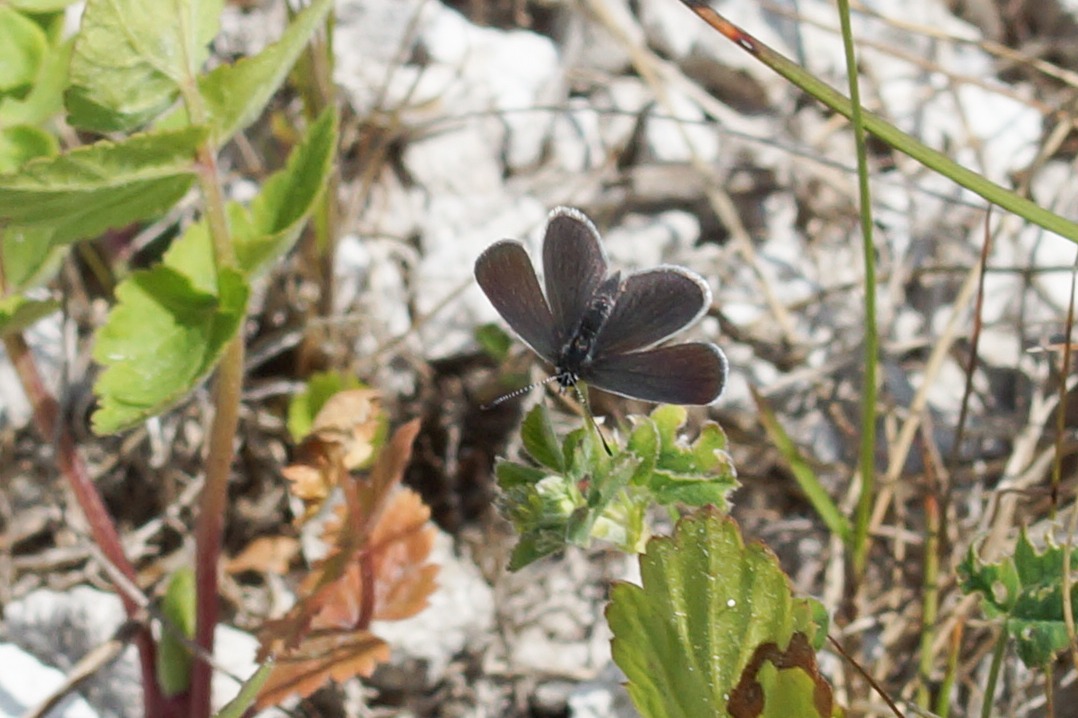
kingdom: Animalia
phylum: Arthropoda
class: Insecta
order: Lepidoptera
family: Lycaenidae
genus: Cupido
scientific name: Cupido minimus
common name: Dværgblåfugl
